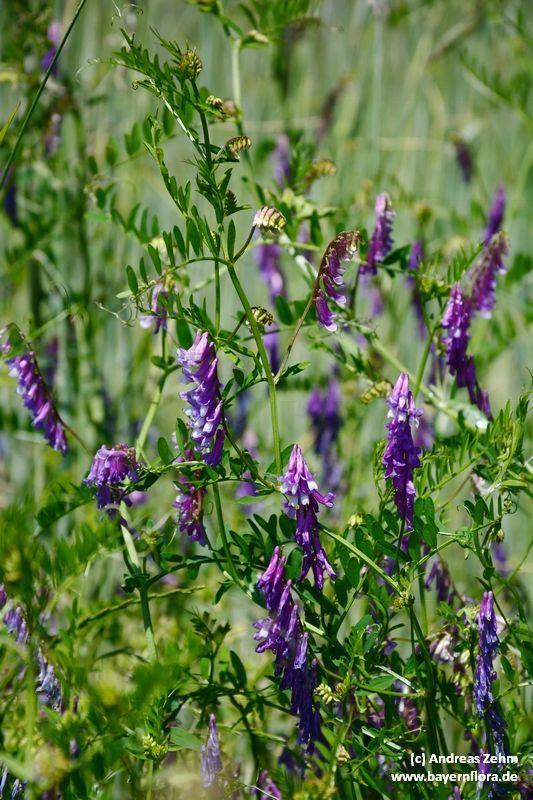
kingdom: Plantae
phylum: Tracheophyta
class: Magnoliopsida
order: Fabales
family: Fabaceae
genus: Vicia
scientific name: Vicia cracca
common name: Bird vetch
